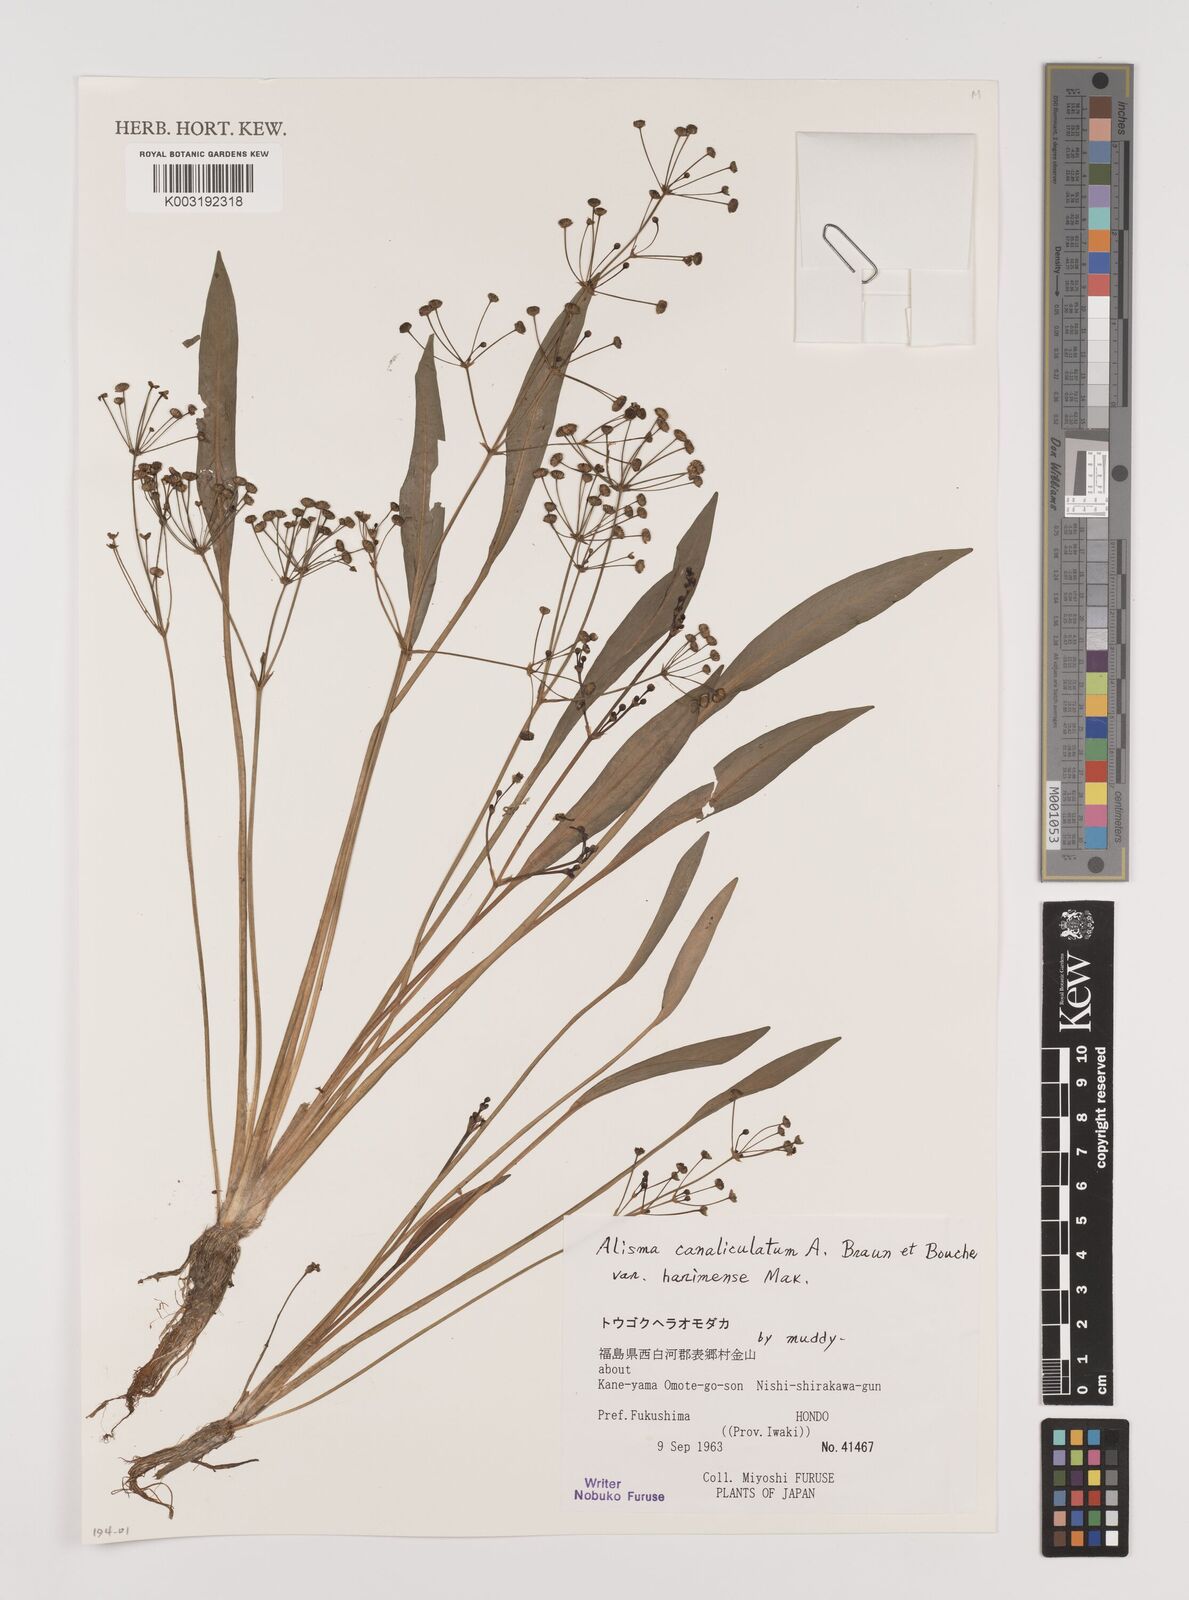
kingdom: Plantae
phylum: Tracheophyta
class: Liliopsida
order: Alismatales
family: Alismataceae
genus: Alisma
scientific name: Alisma canaliculatum
